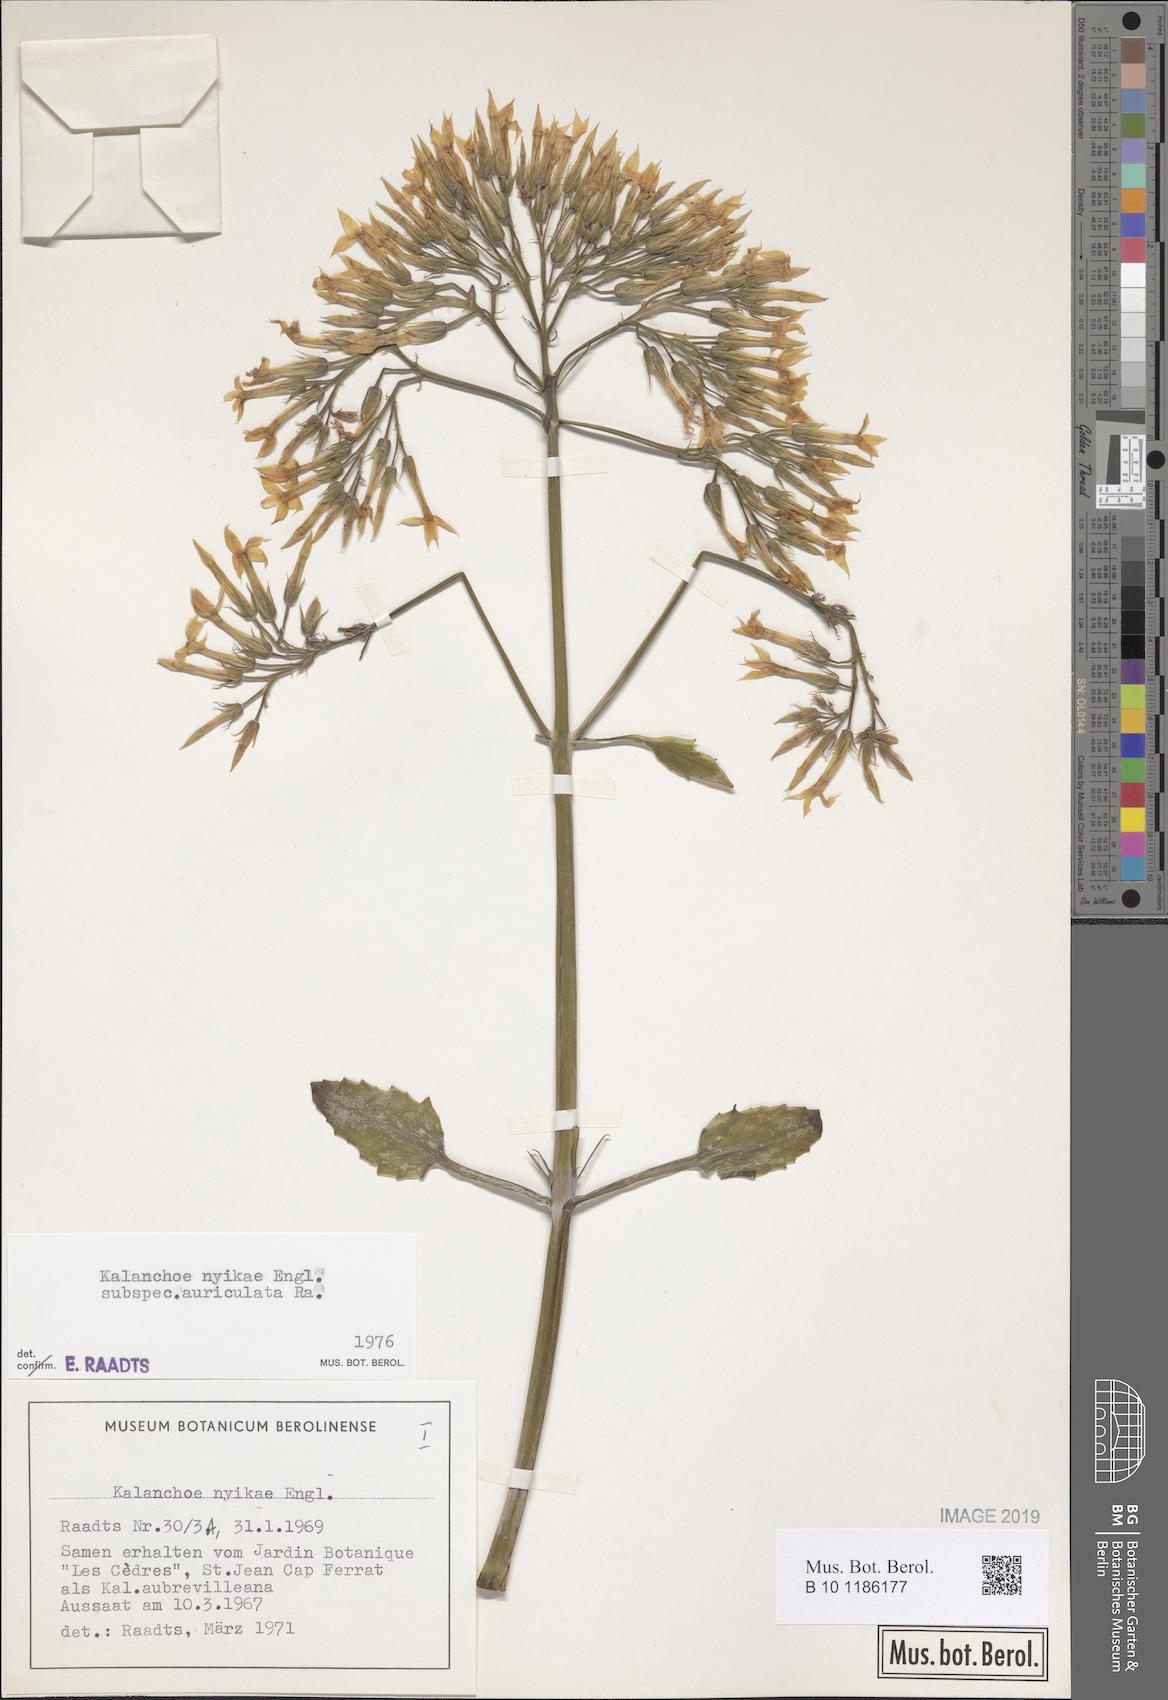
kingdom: Plantae
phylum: Tracheophyta
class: Magnoliopsida
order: Saxifragales
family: Crassulaceae
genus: Kalanchoe
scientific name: Kalanchoe auriculata
